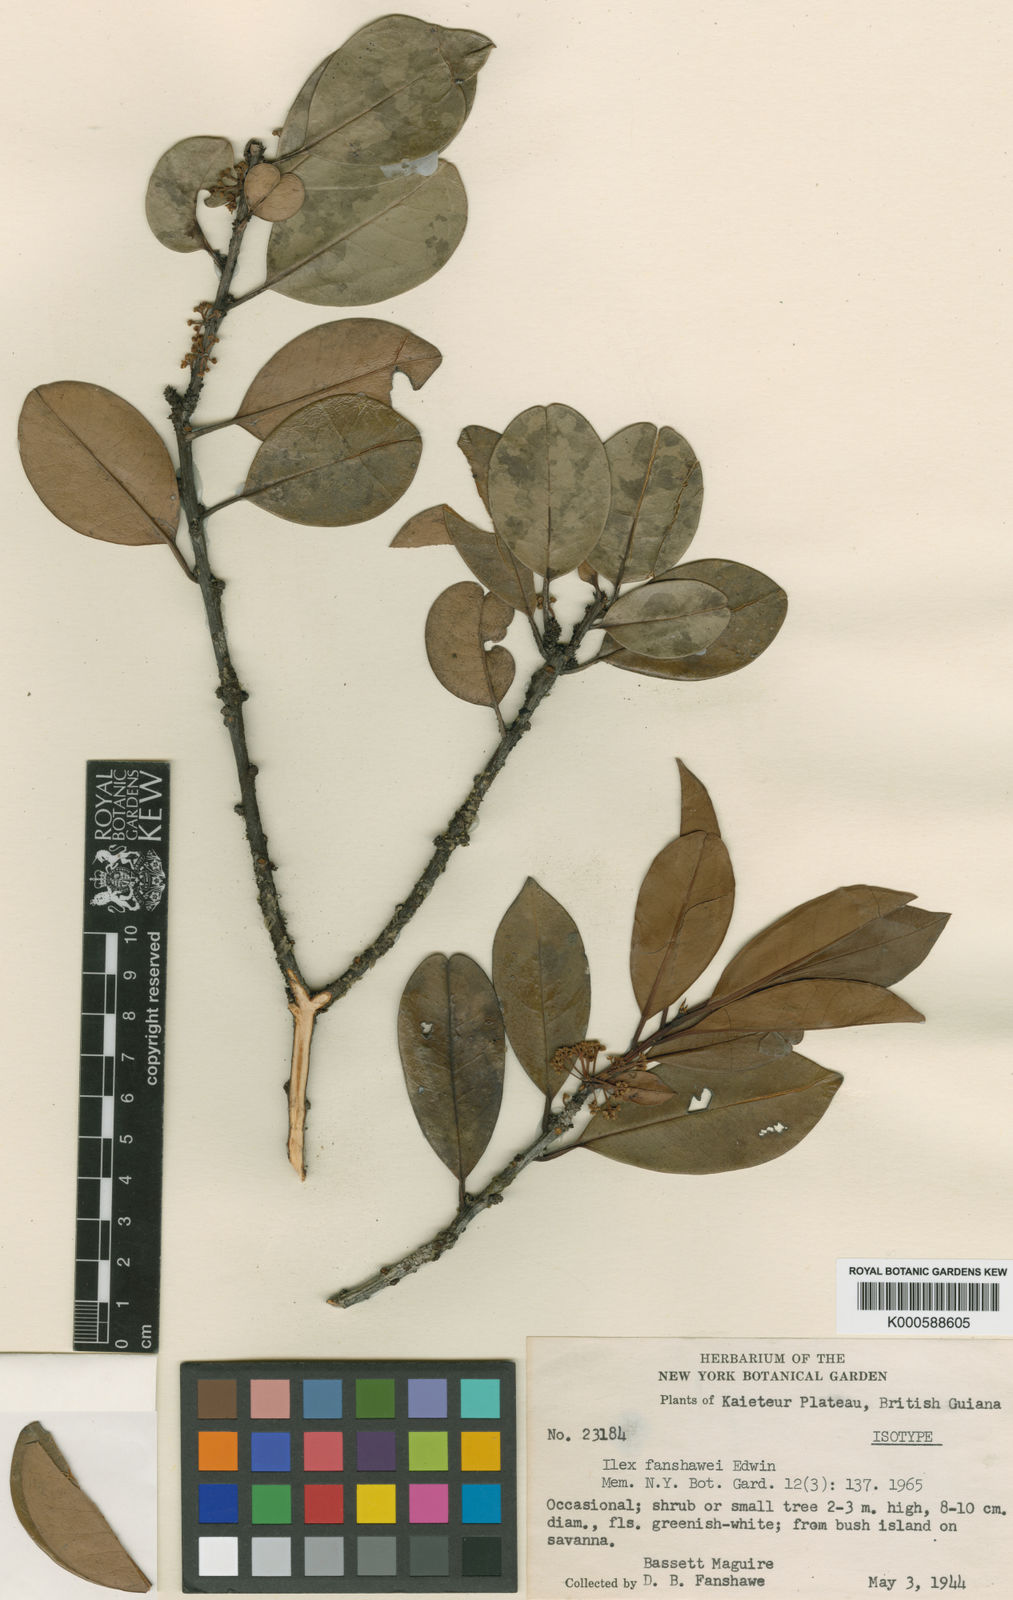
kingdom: Plantae
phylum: Tracheophyta
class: Magnoliopsida
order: Aquifoliales
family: Aquifoliaceae
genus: Ilex
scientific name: Ilex fanshawei
